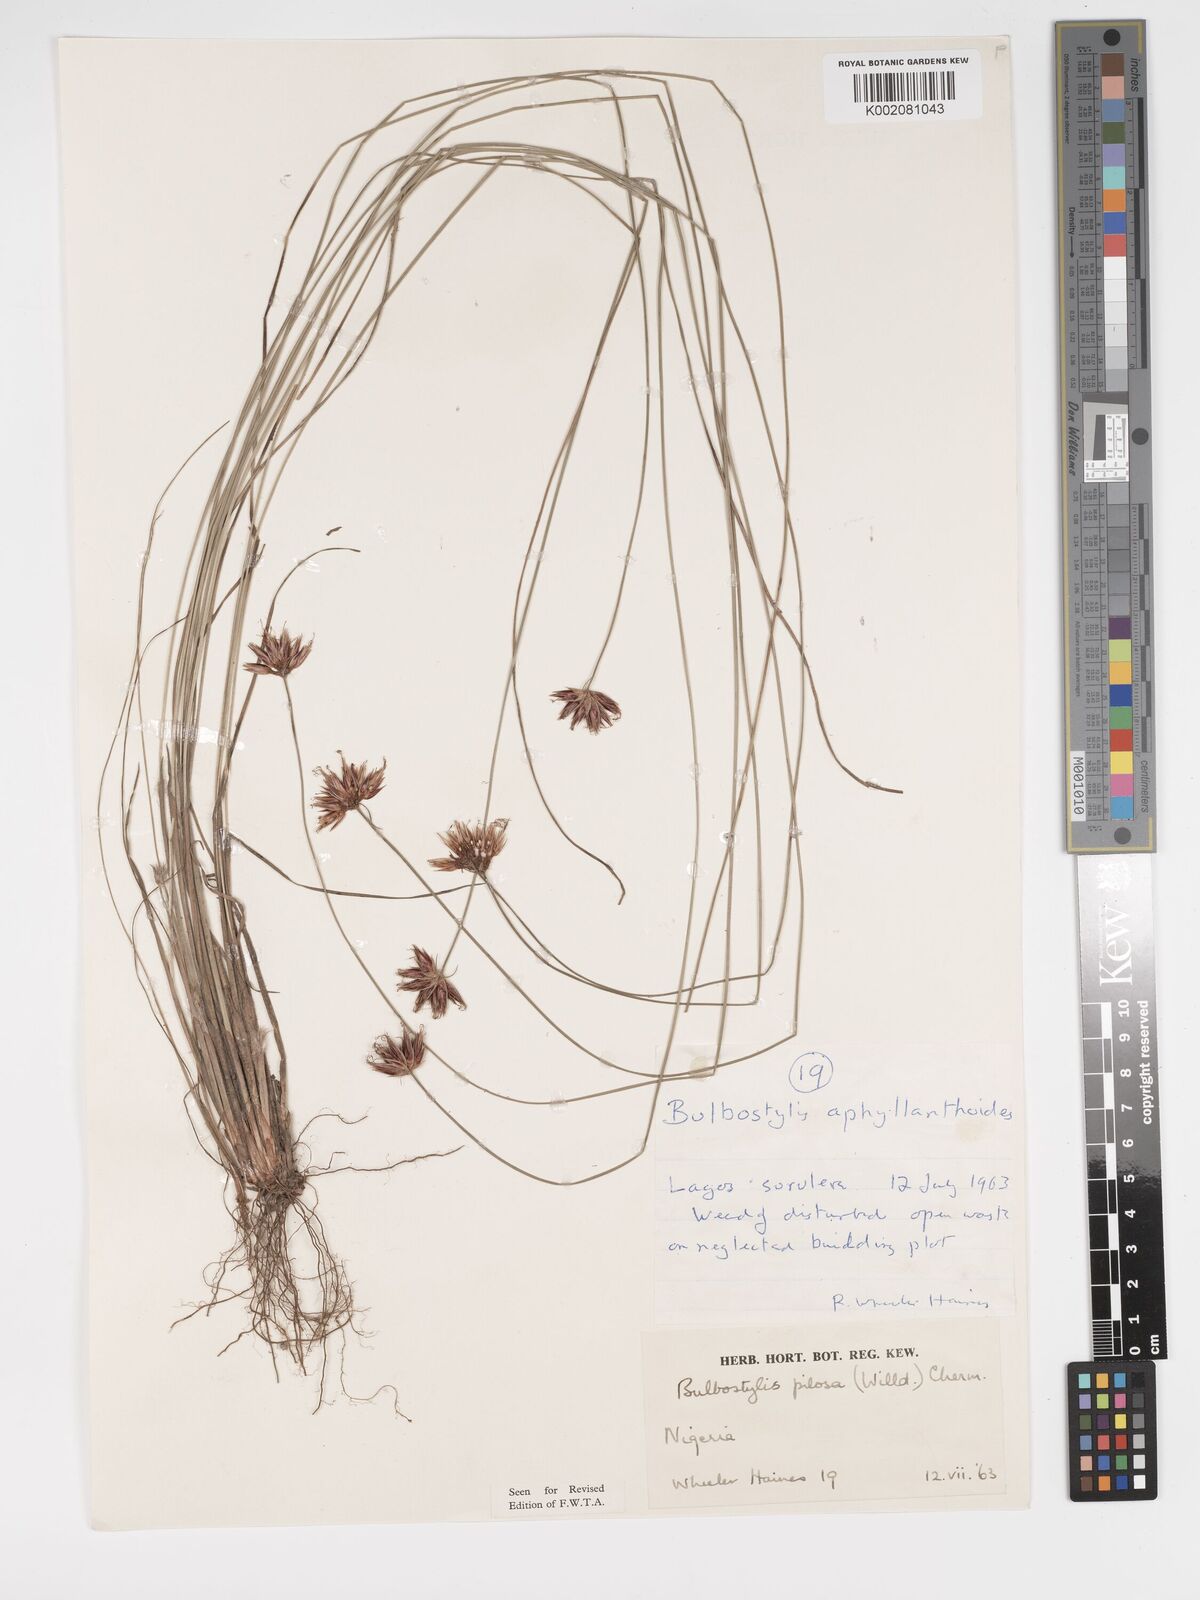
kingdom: Plantae
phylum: Tracheophyta
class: Liliopsida
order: Poales
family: Cyperaceae
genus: Bulbostylis
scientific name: Bulbostylis pilosa
